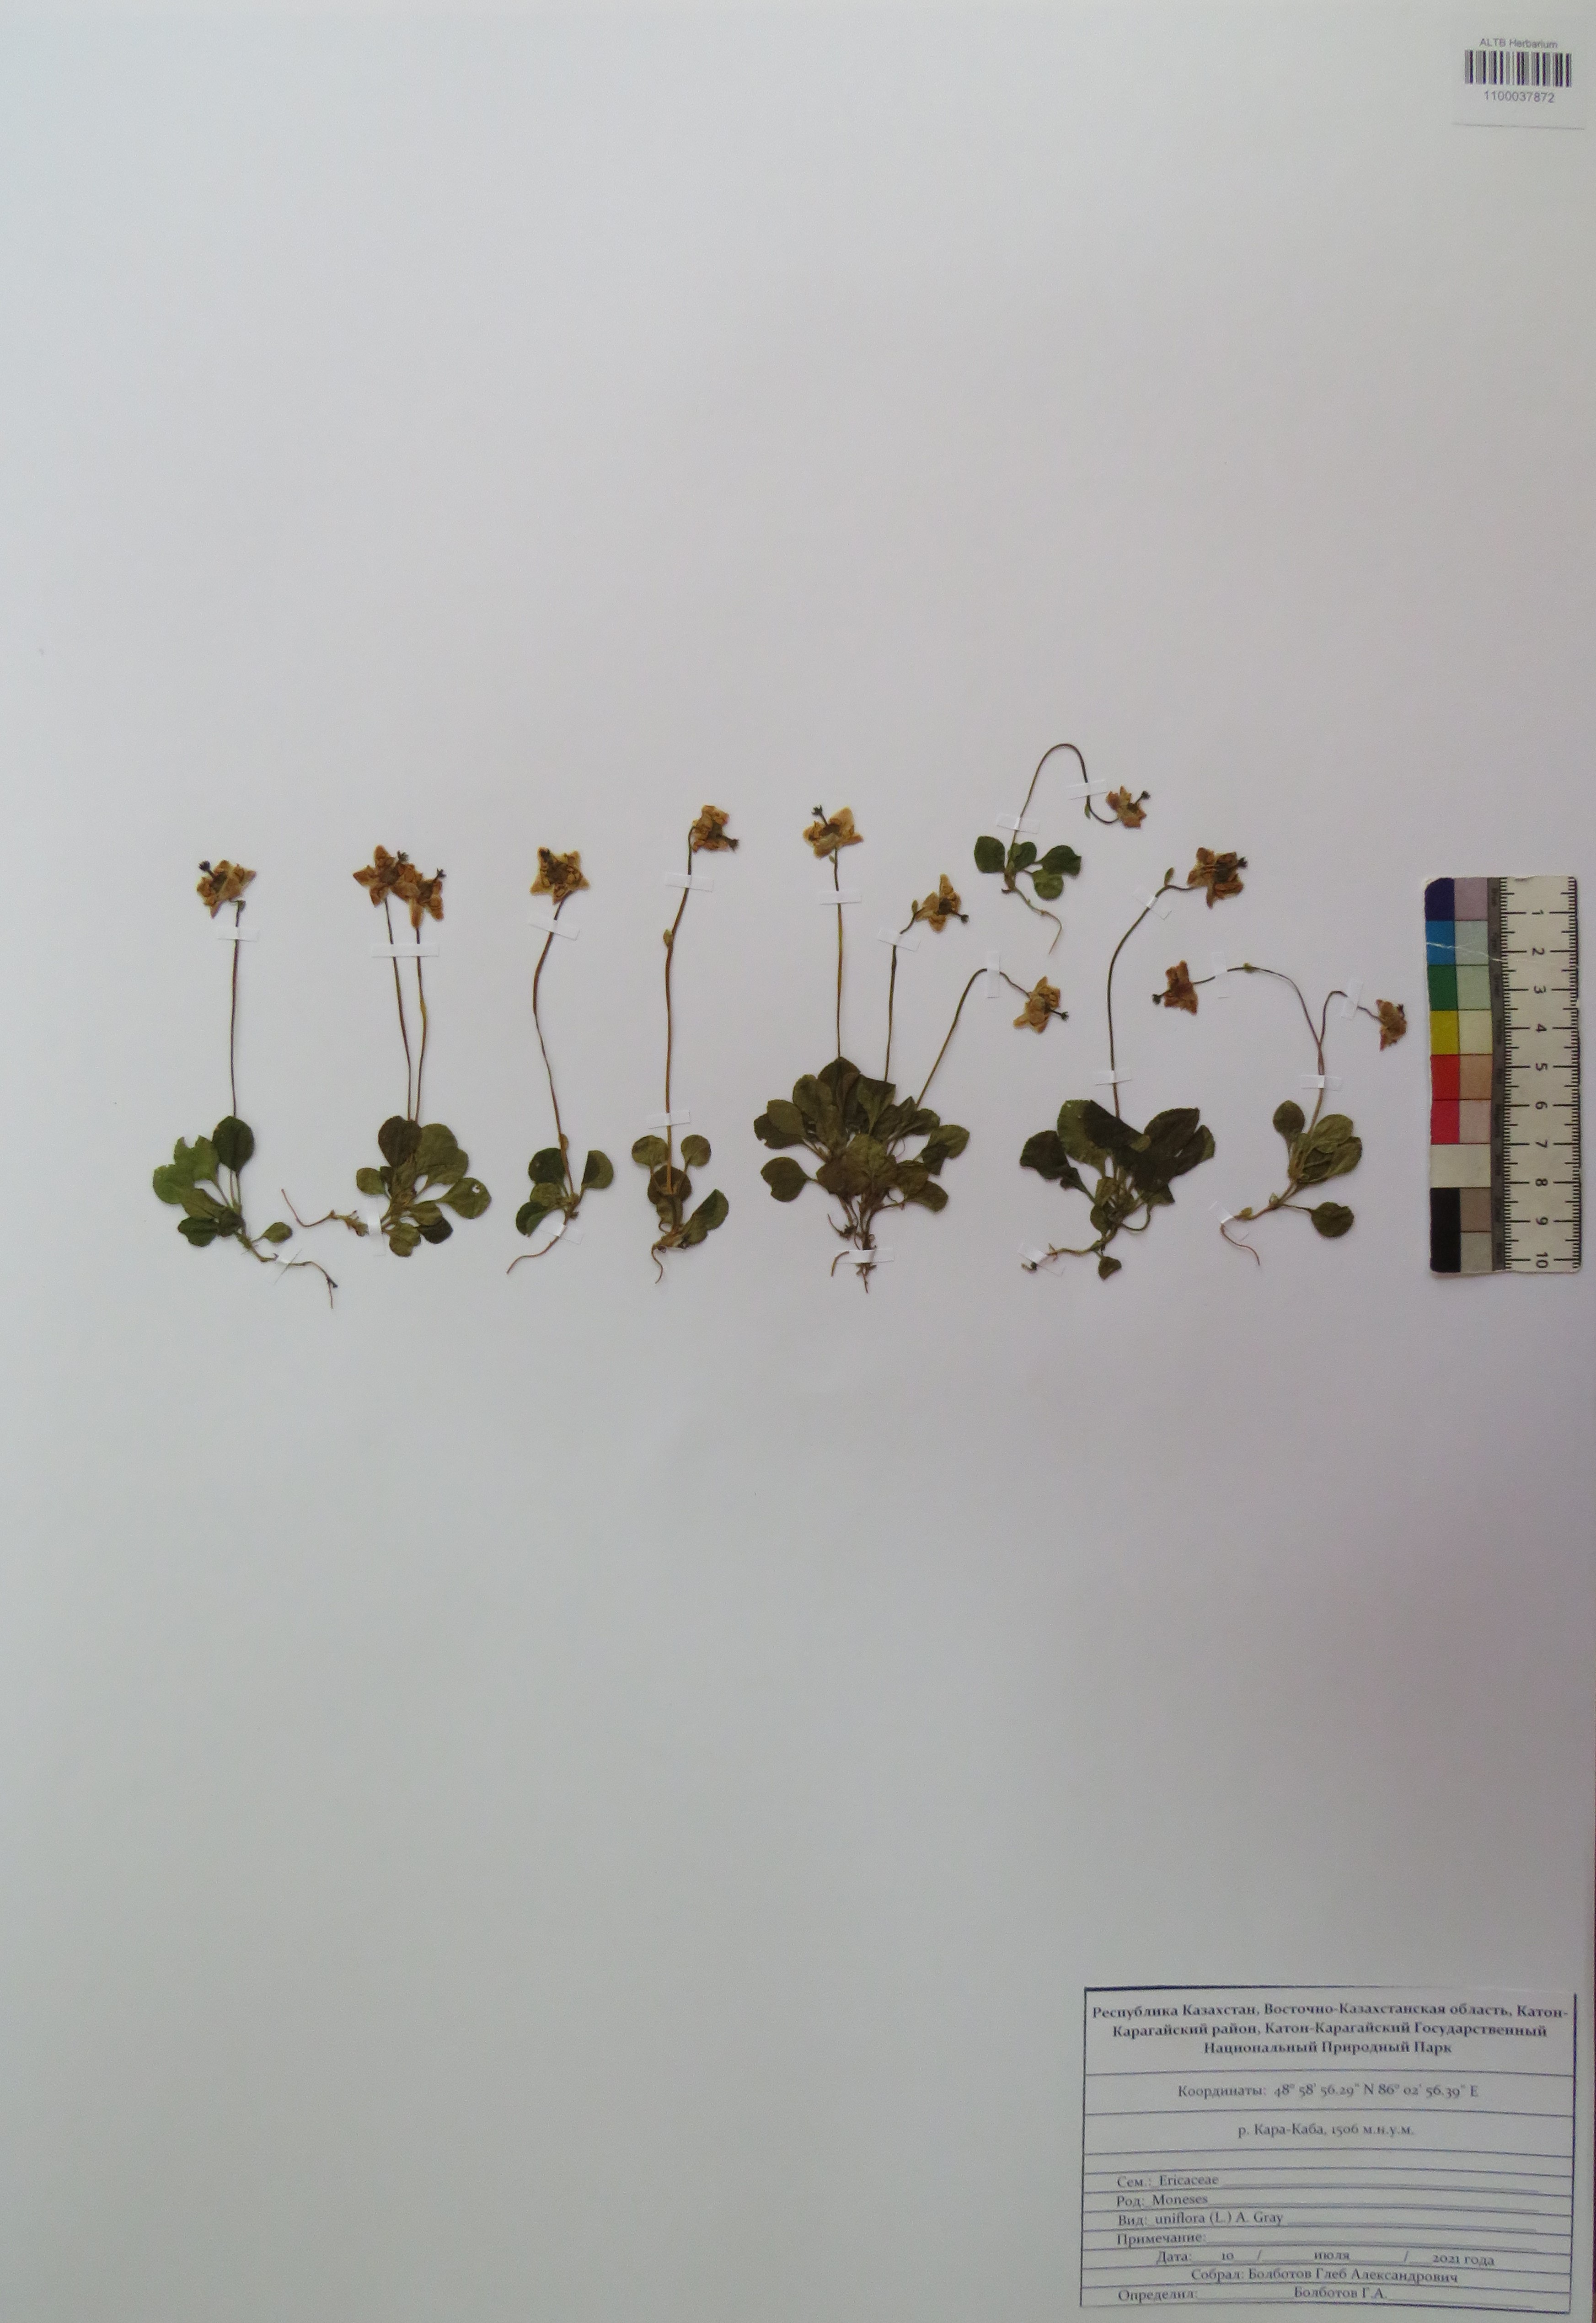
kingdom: Plantae
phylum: Tracheophyta
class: Magnoliopsida
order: Ericales
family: Ericaceae
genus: Moneses
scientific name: Moneses uniflora
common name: One-flowered wintergreen
